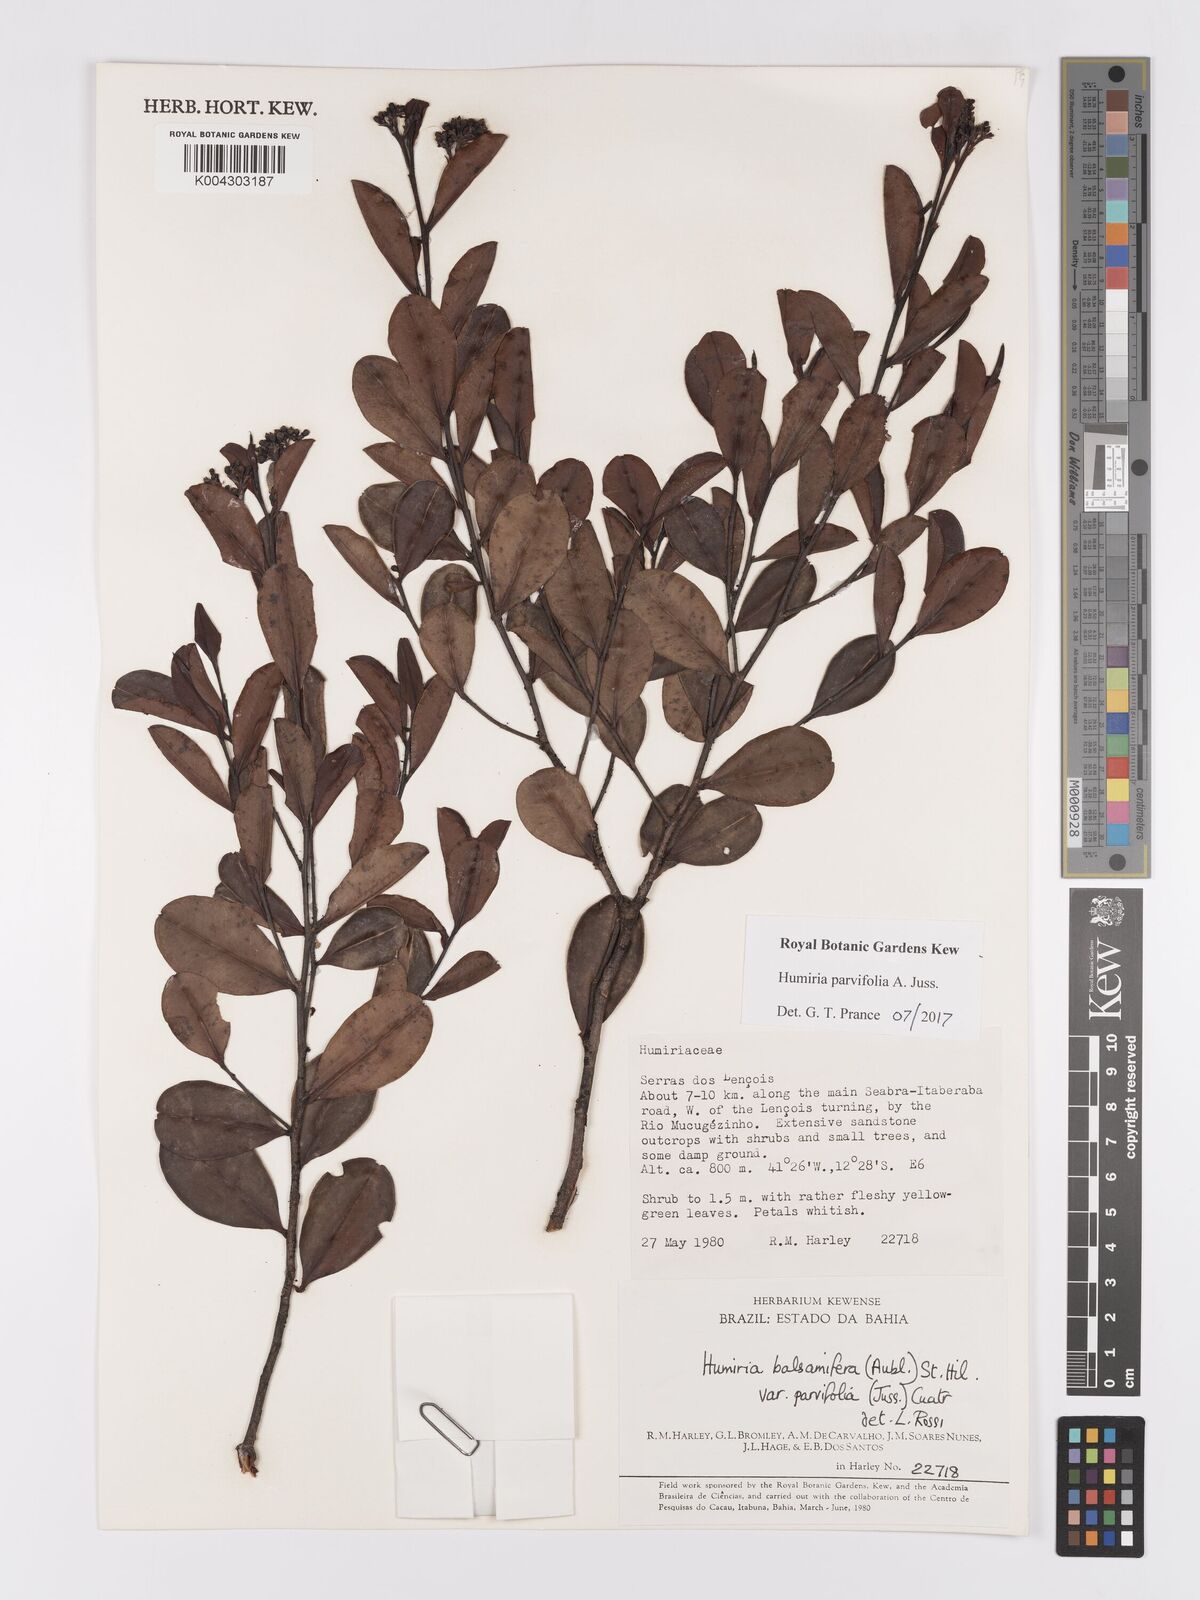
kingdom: Plantae
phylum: Tracheophyta
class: Magnoliopsida
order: Malpighiales
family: Humiriaceae
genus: Humiria
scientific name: Humiria parvifolia
